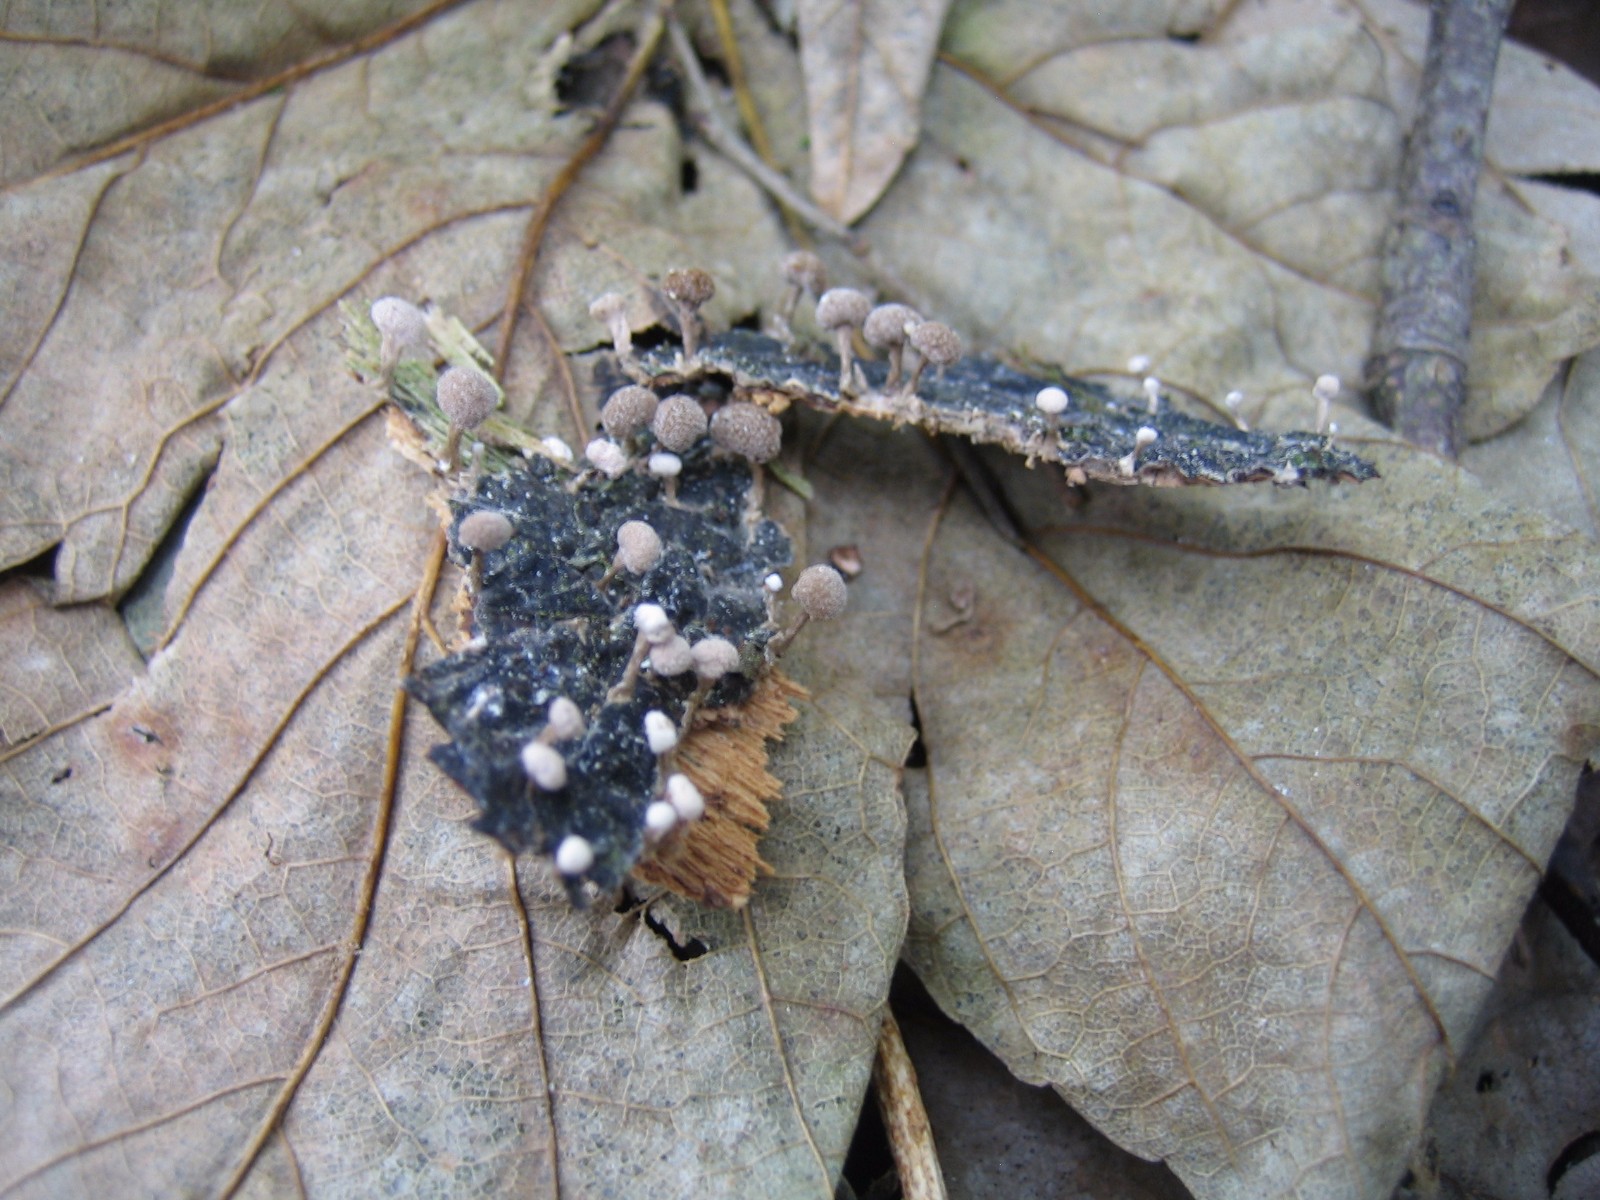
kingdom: Fungi
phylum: Basidiomycota
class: Atractiellomycetes
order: Atractiellales
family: Phleogenaceae
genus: Phleogena
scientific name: Phleogena faginea
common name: pudderkølle
